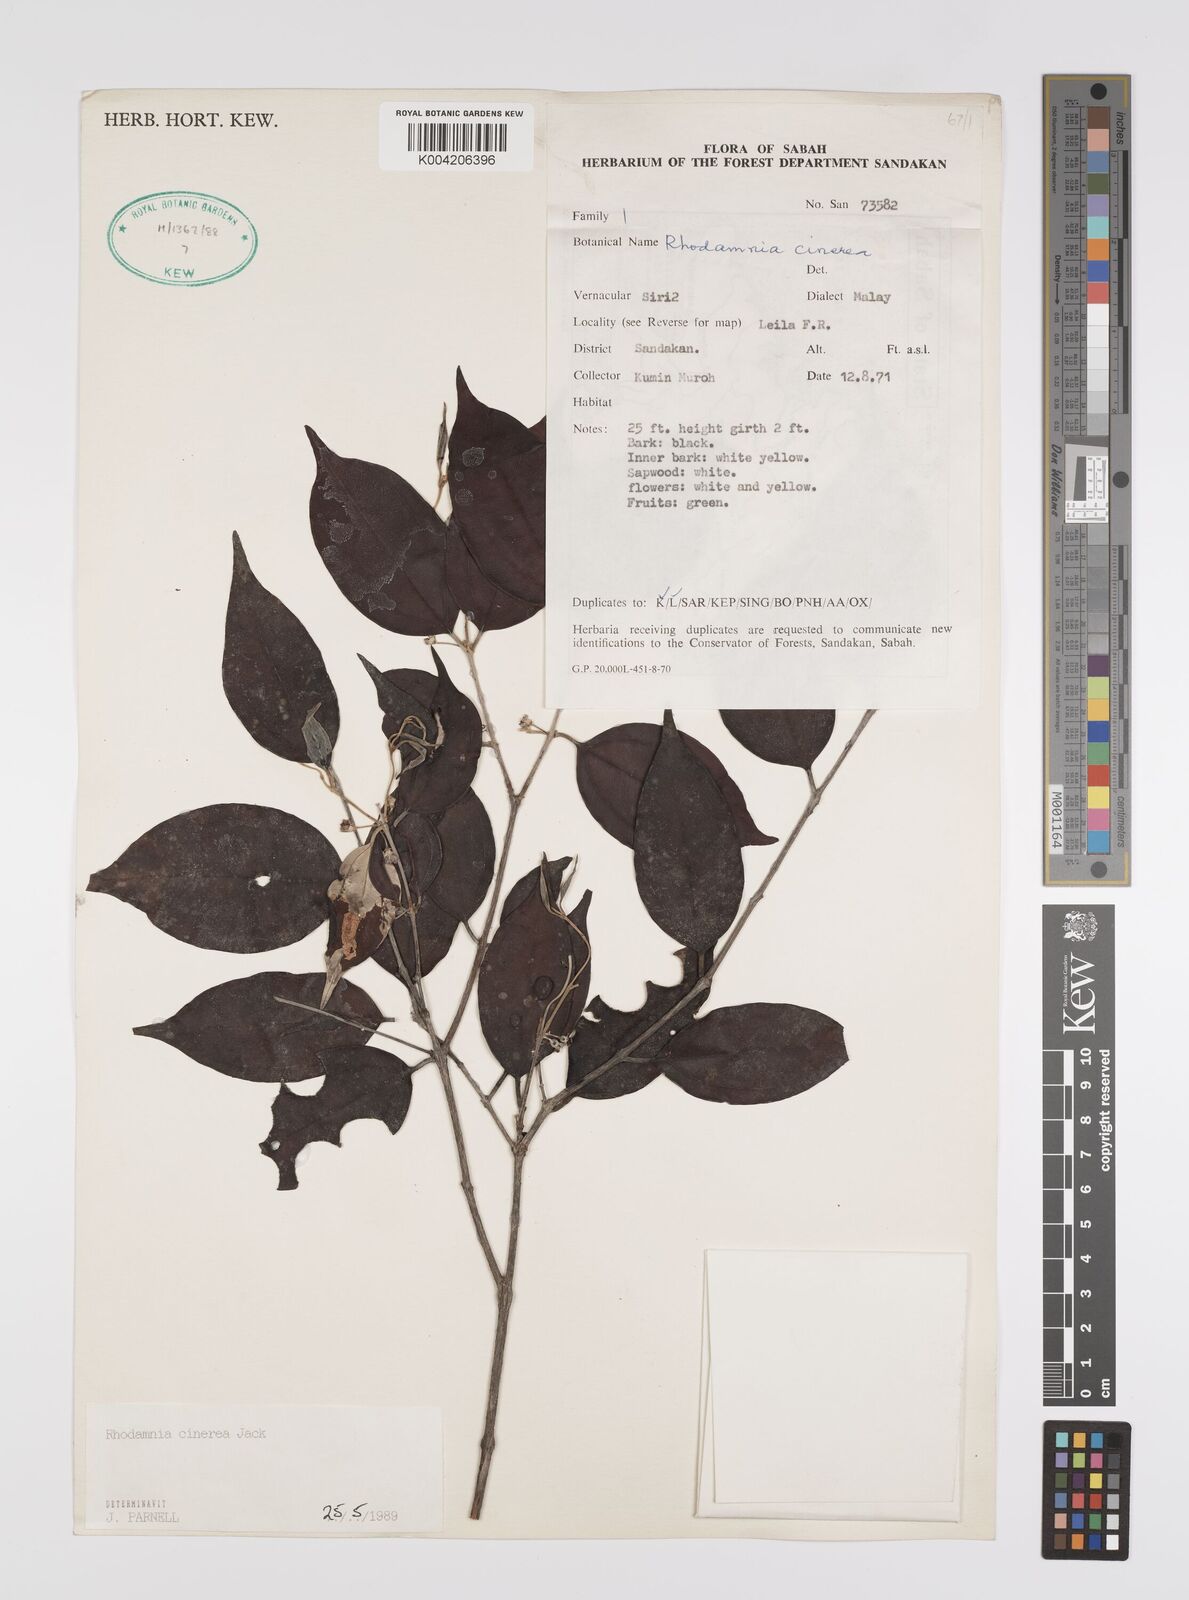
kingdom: Plantae
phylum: Tracheophyta
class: Magnoliopsida
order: Myrtales
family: Myrtaceae
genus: Rhodamnia
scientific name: Rhodamnia cinerea
